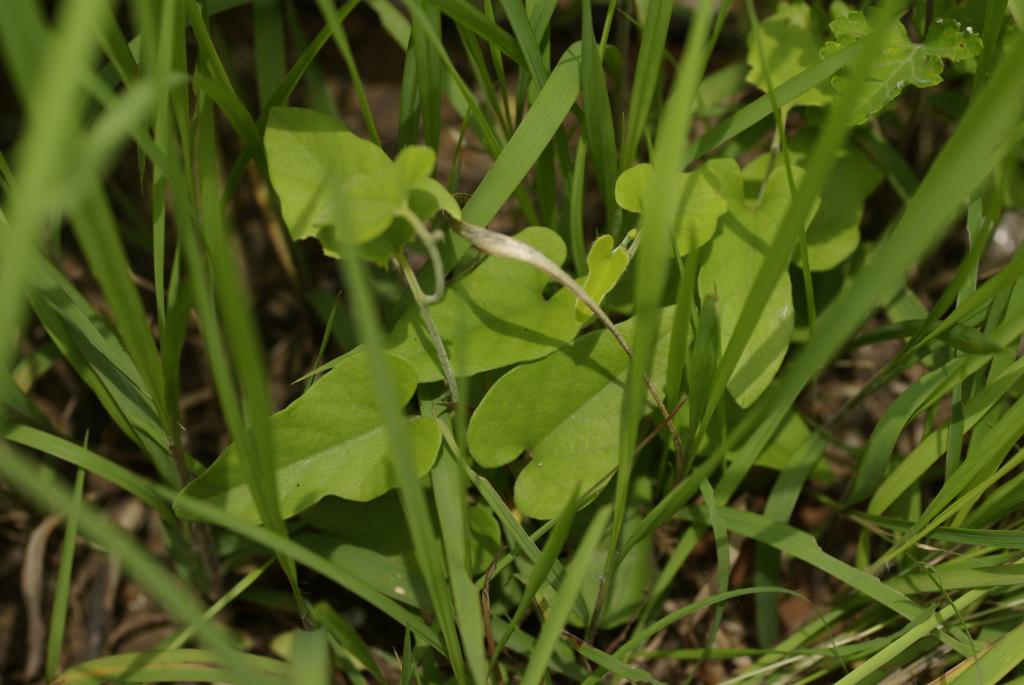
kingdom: Plantae
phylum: Tracheophyta
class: Magnoliopsida
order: Piperales
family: Aristolochiaceae
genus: Isotrema
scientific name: Isotrema kaempferi
